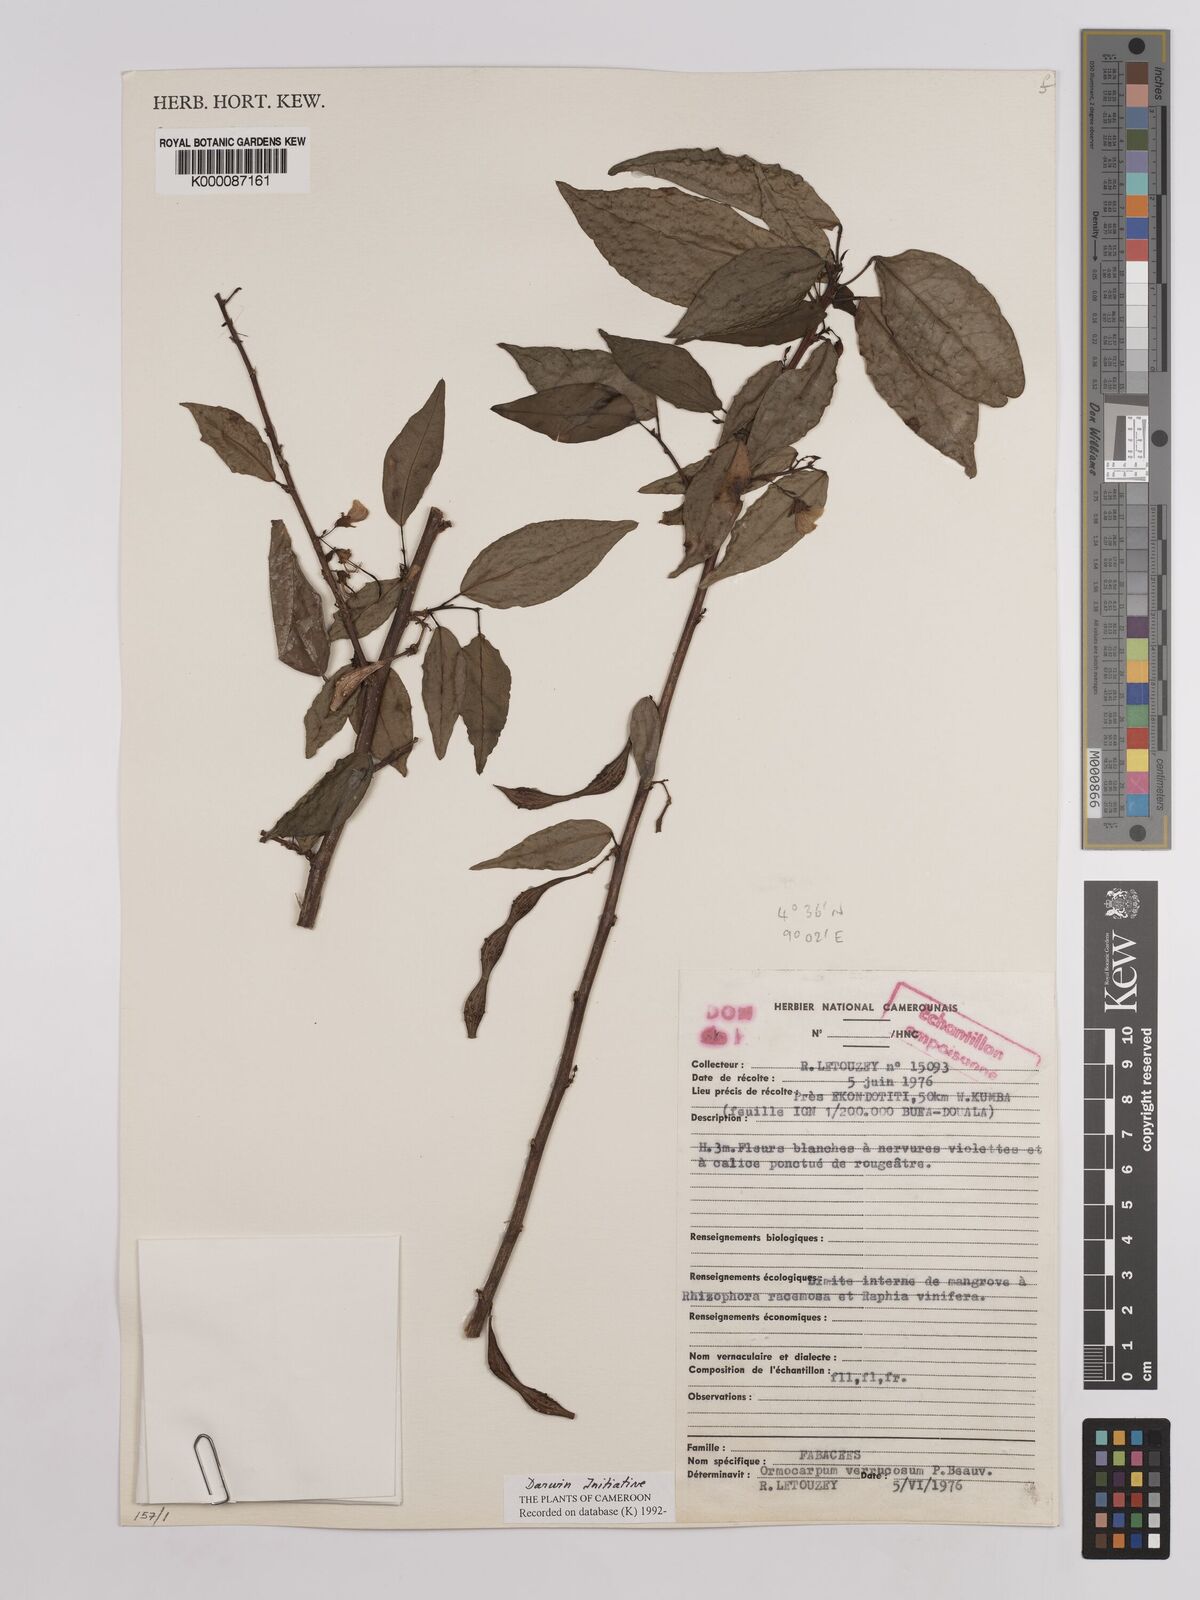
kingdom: Plantae
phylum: Tracheophyta
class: Magnoliopsida
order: Fabales
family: Fabaceae
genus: Ormocarpum
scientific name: Ormocarpum verrucosum
